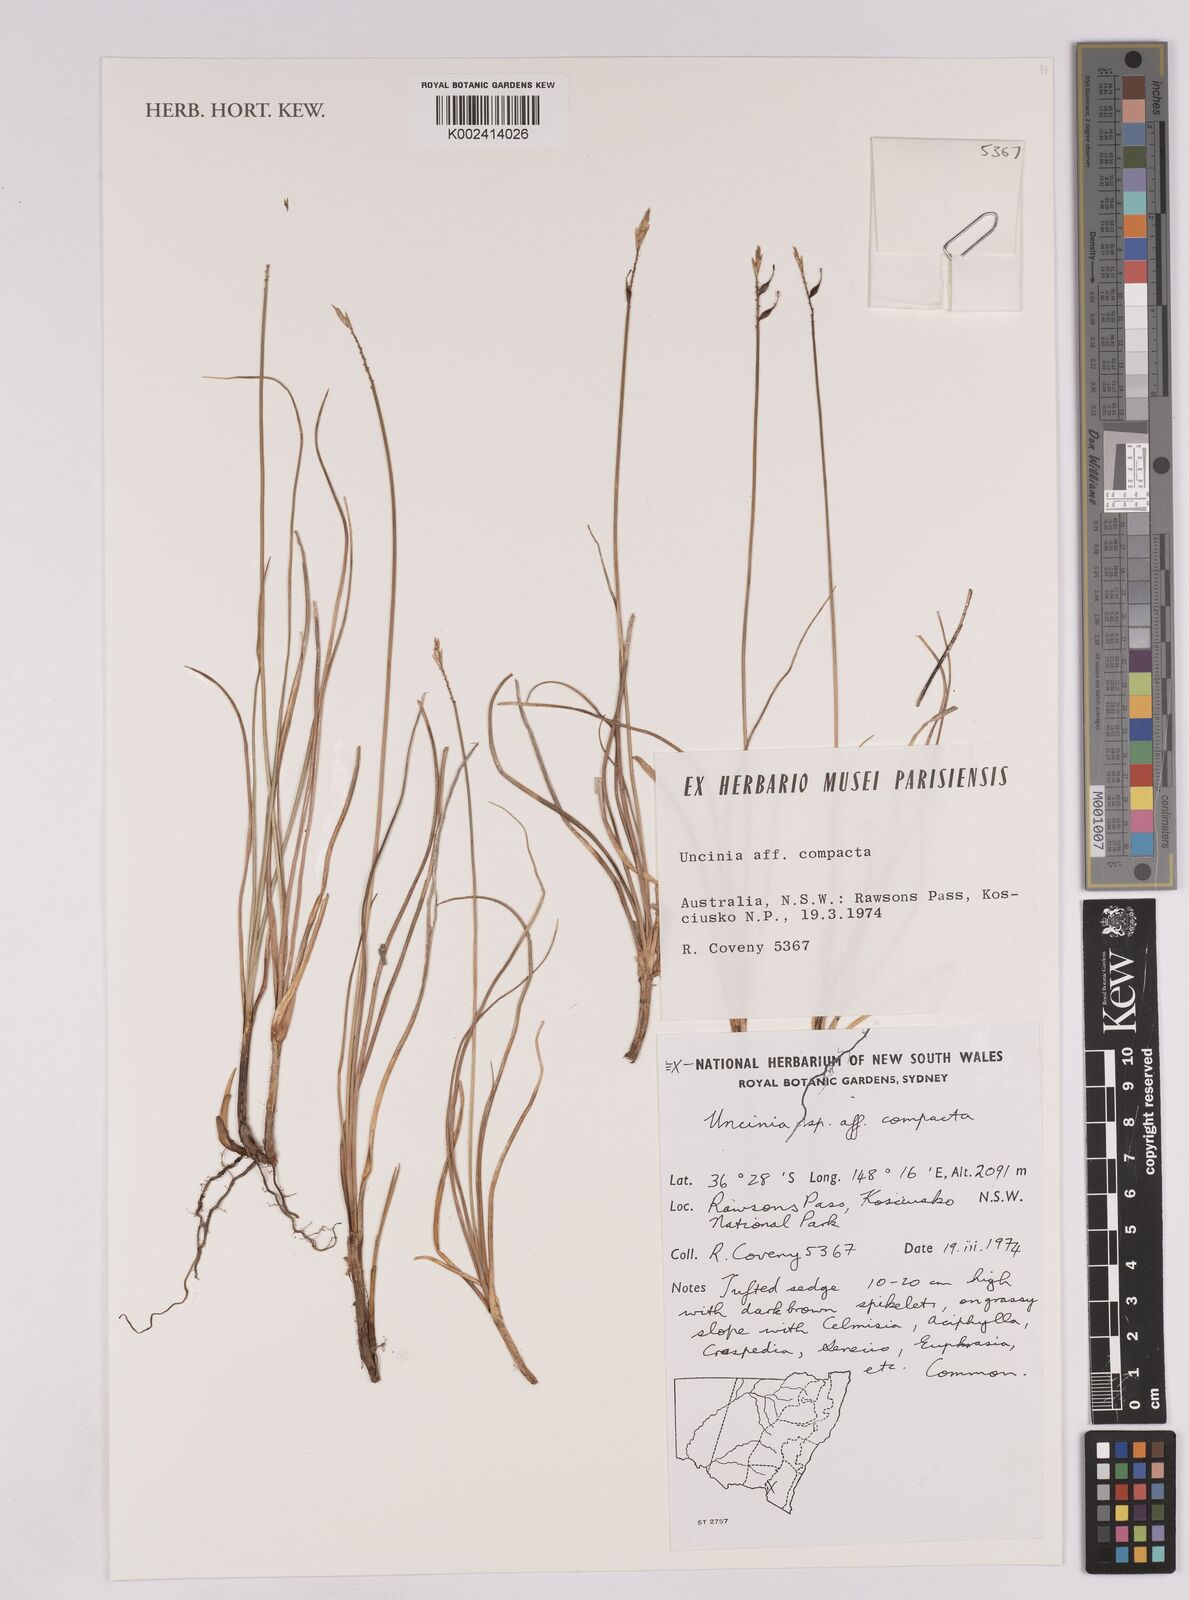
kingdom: Plantae
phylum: Tracheophyta
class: Liliopsida
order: Poales
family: Cyperaceae
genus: Carex
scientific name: Carex austrocompacta
